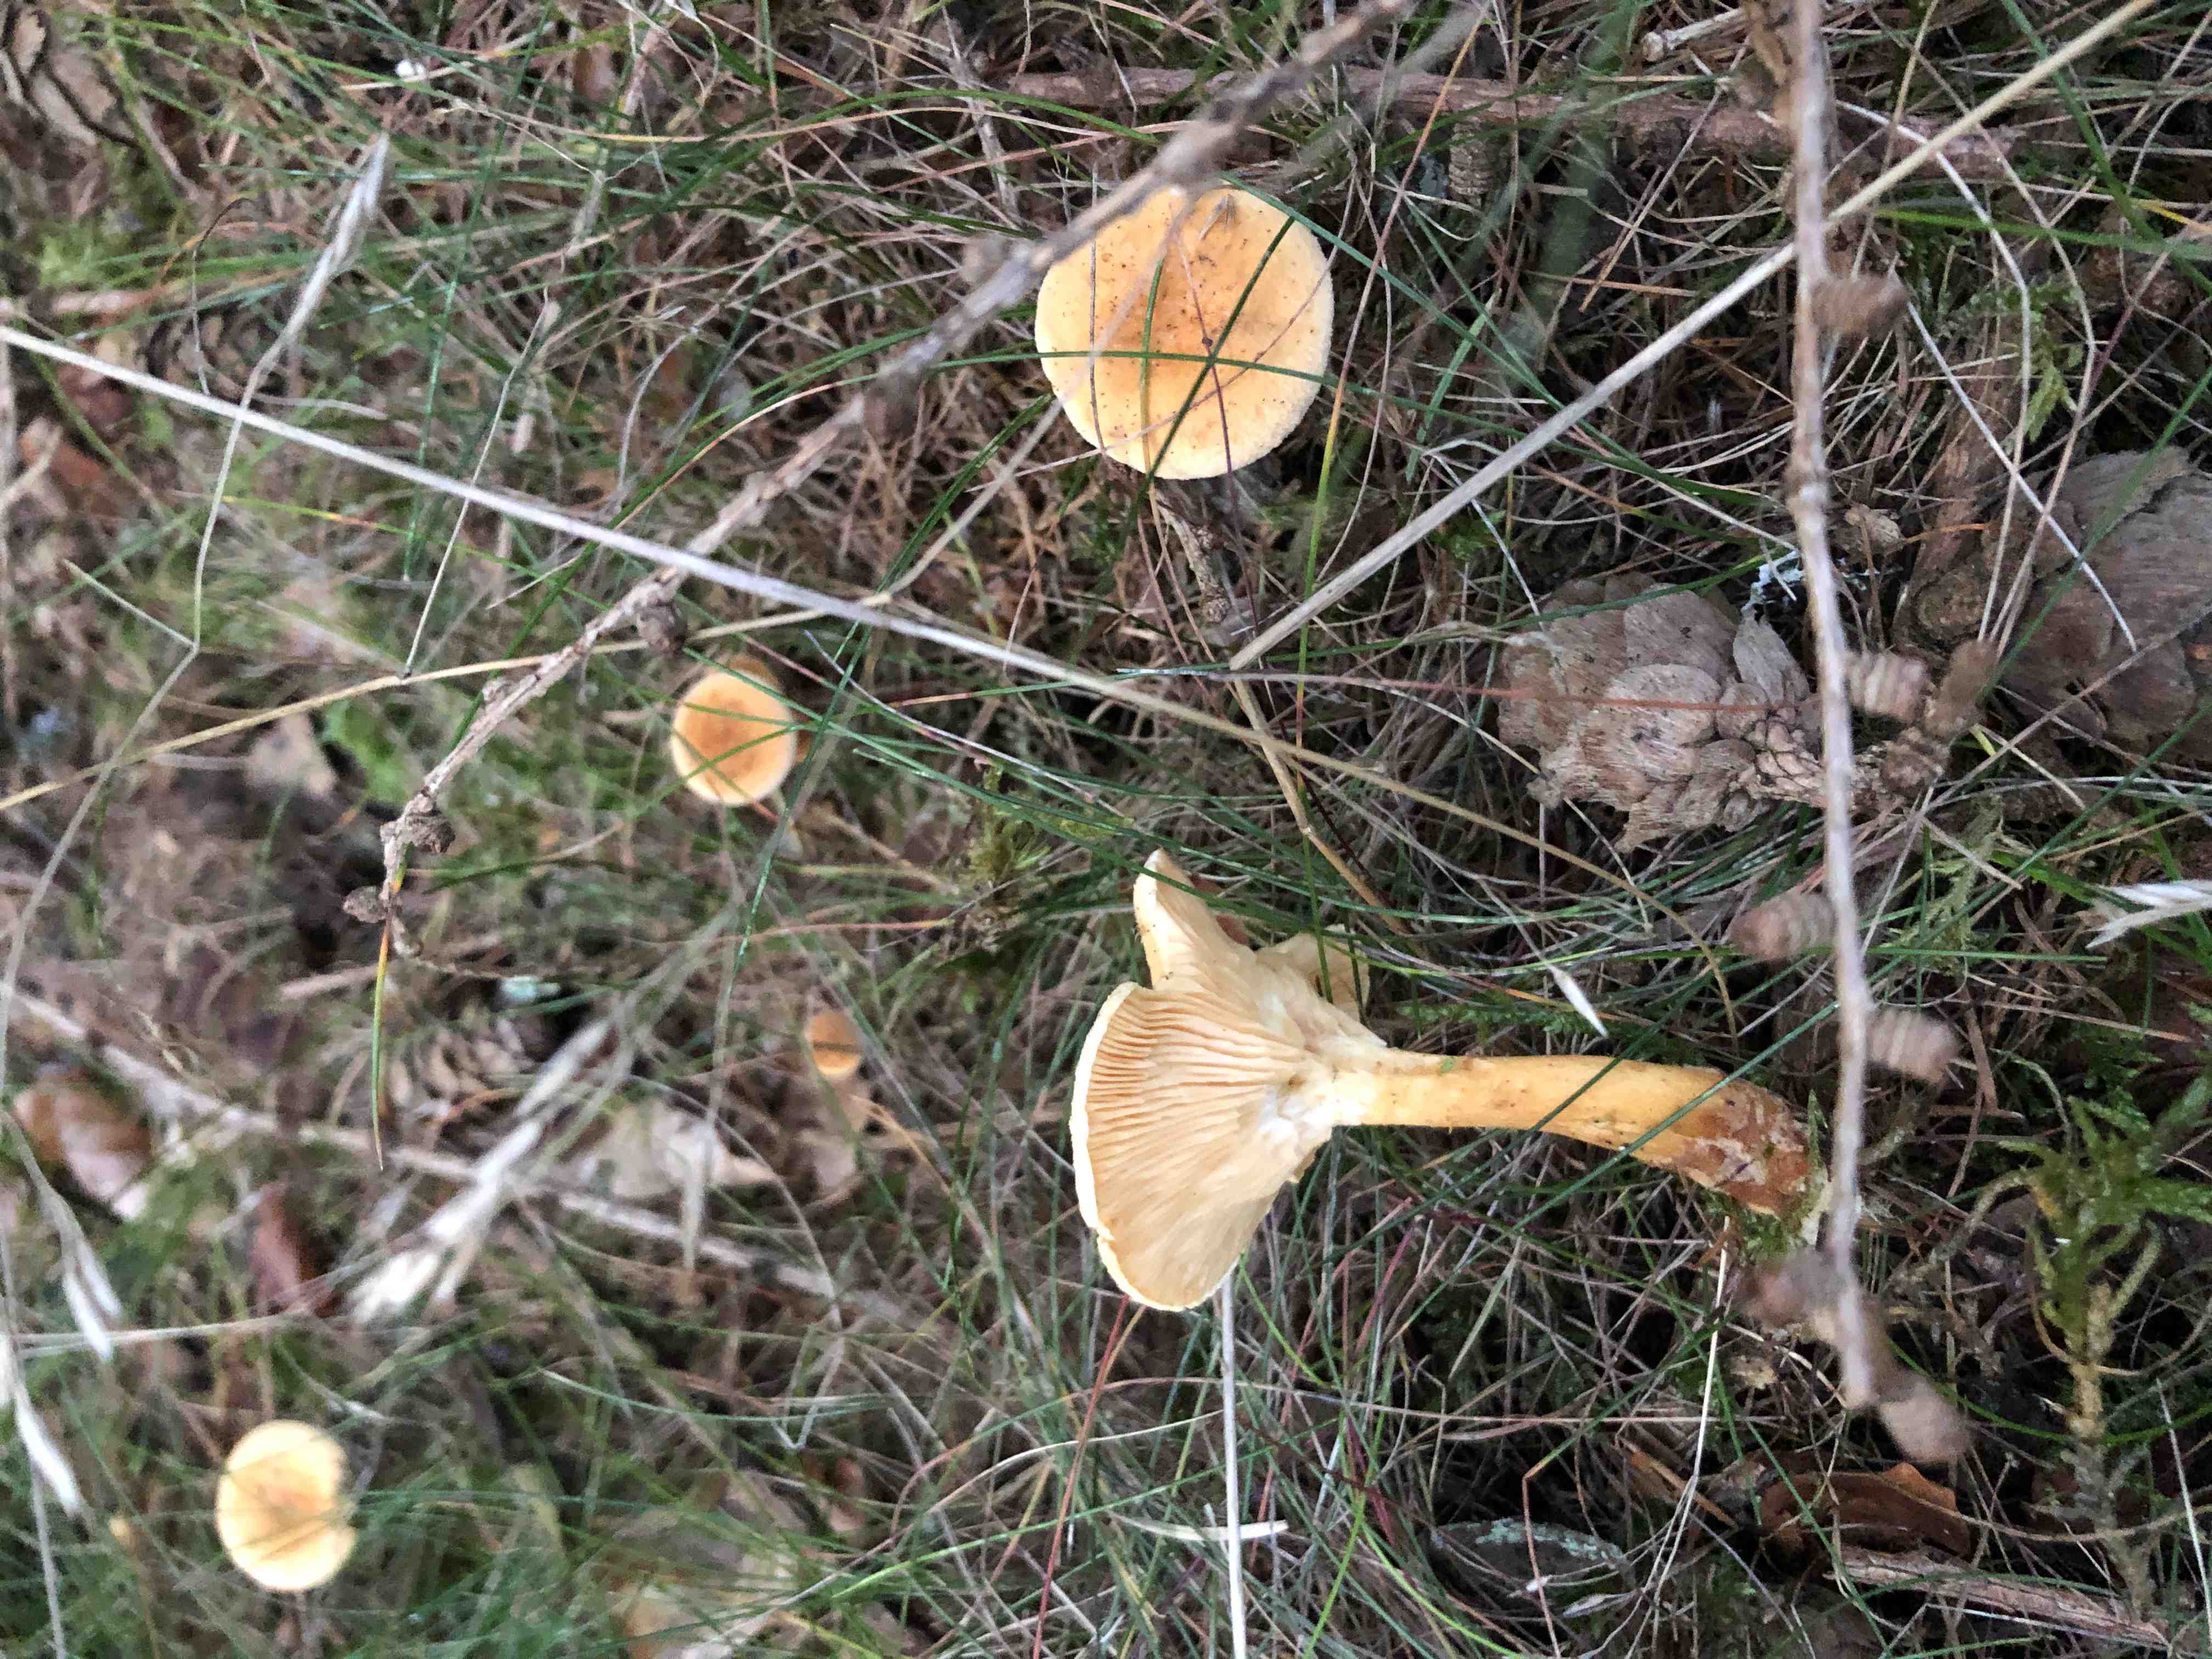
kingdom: Fungi
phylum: Basidiomycota
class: Agaricomycetes
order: Boletales
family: Hygrophoropsidaceae
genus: Hygrophoropsis
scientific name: Hygrophoropsis aurantiaca
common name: almindelig orangekantarel
